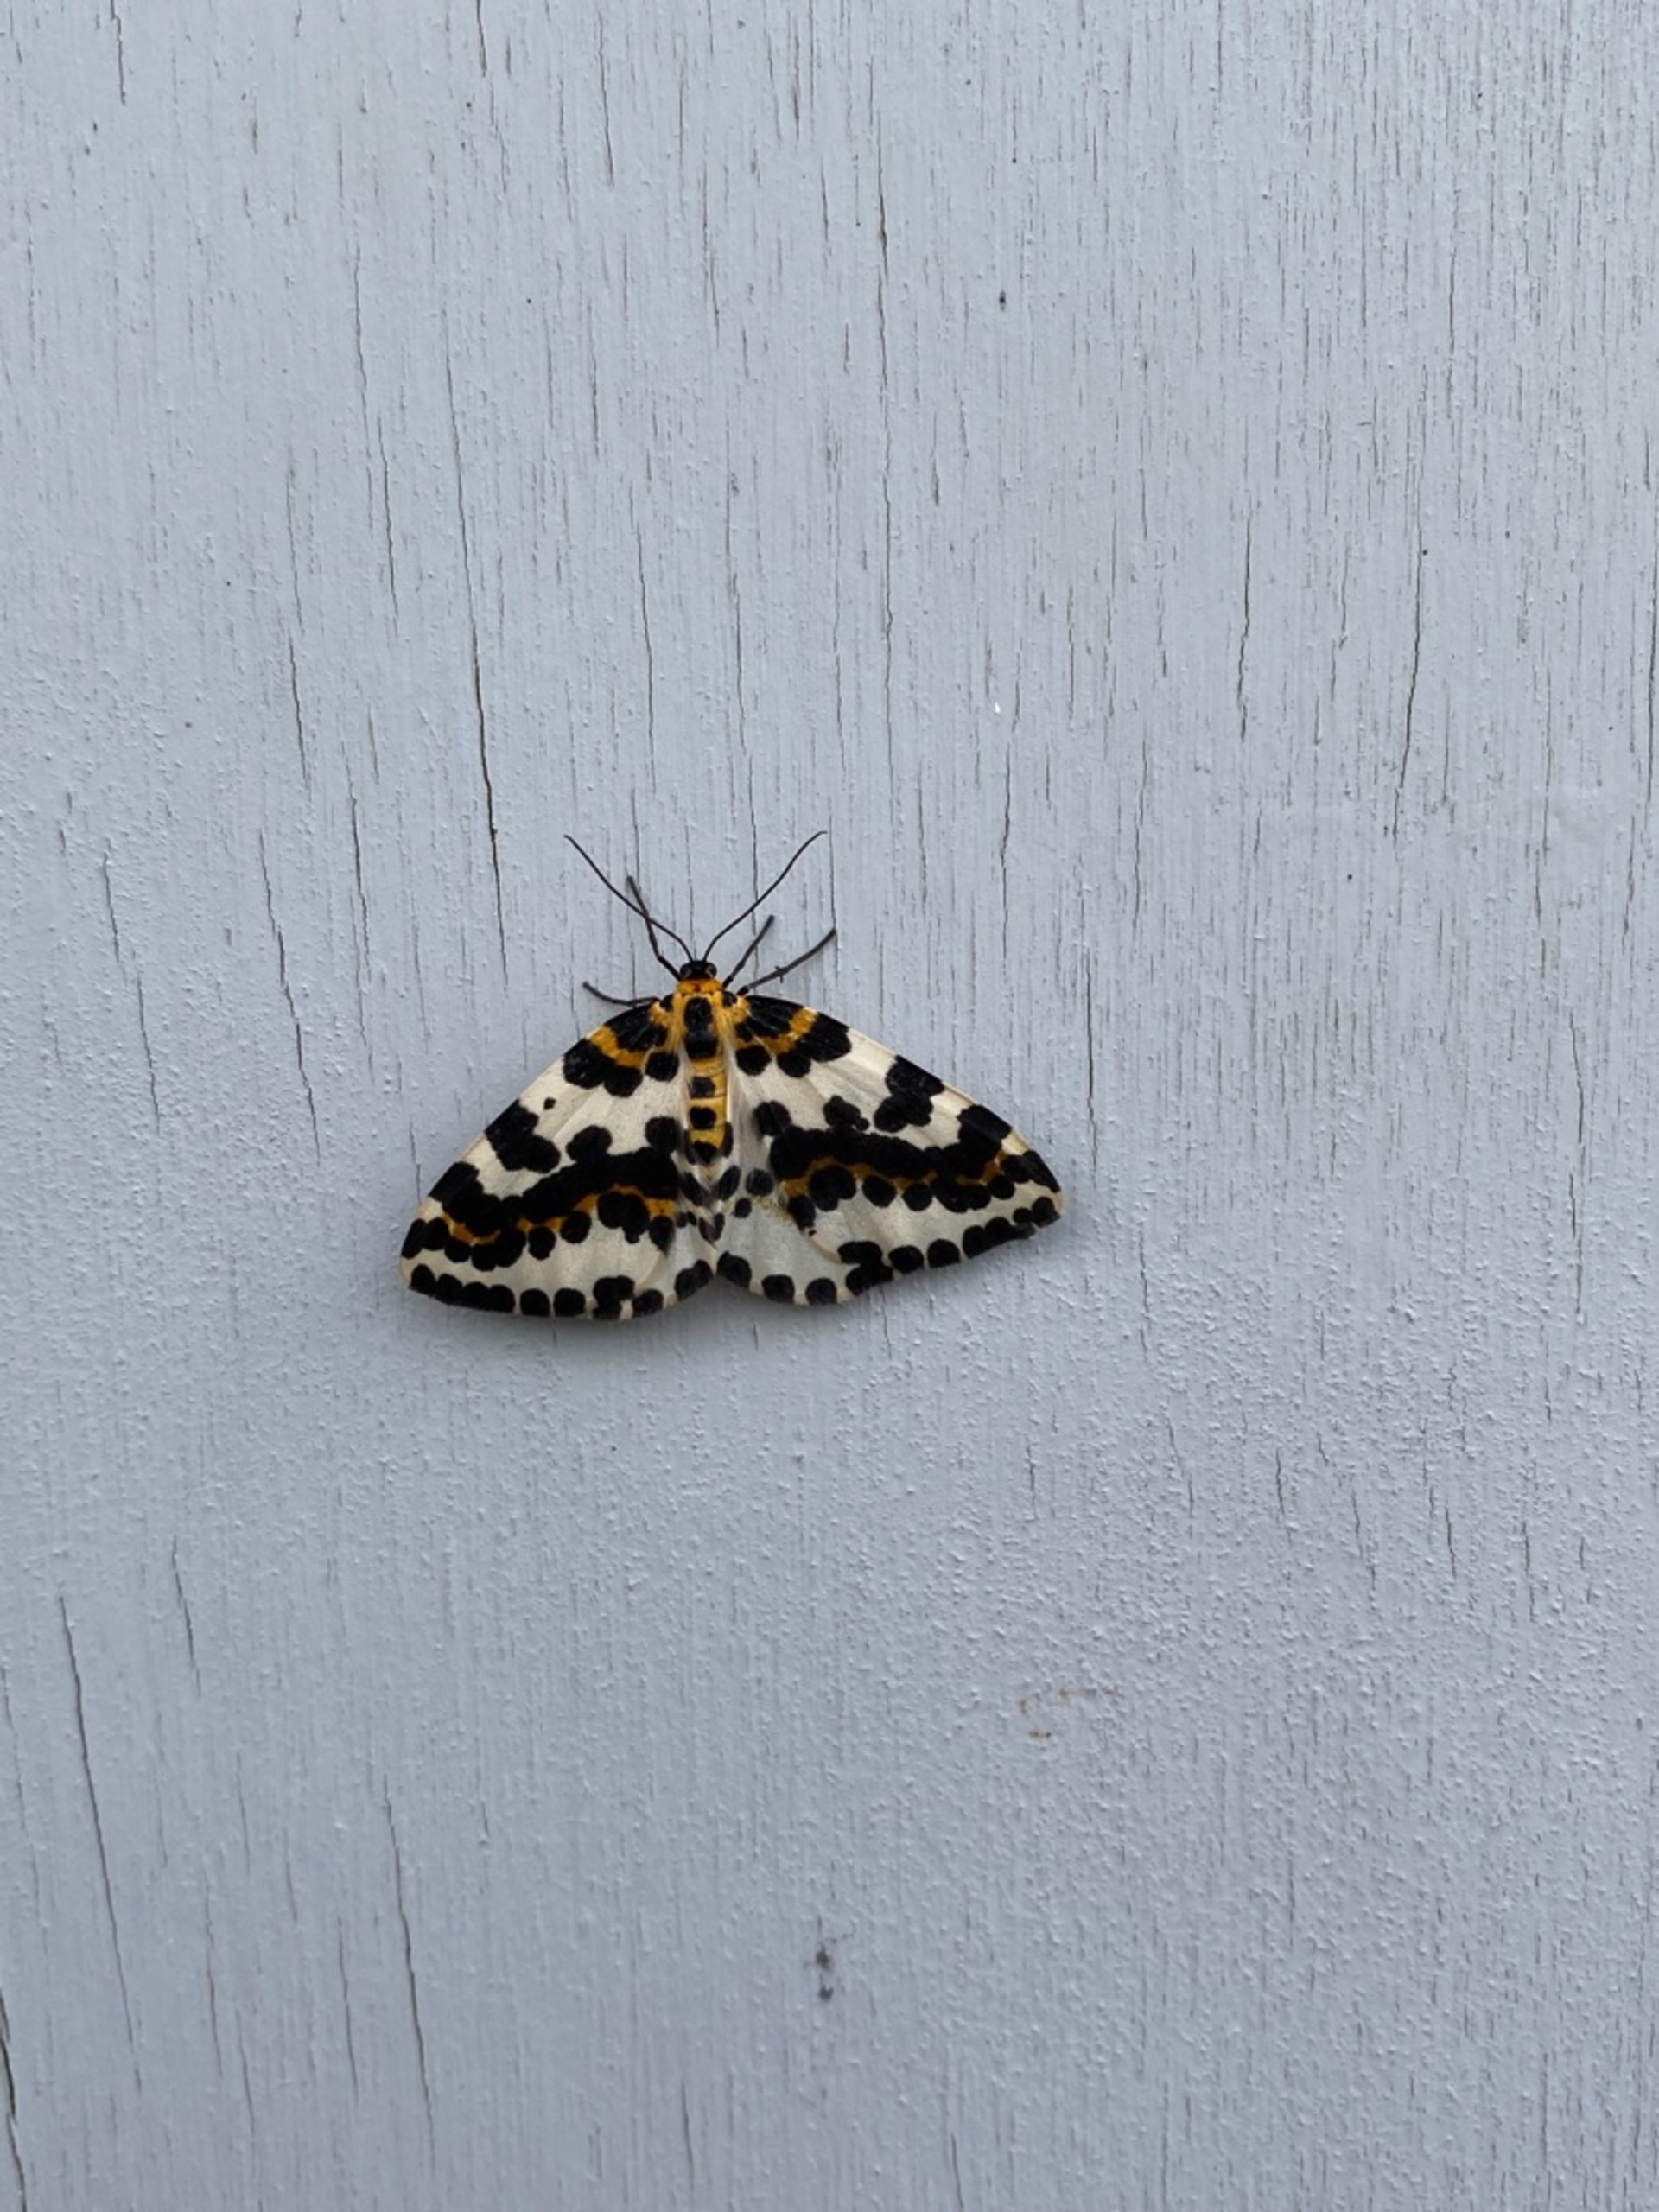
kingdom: Animalia
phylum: Arthropoda
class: Insecta
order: Lepidoptera
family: Geometridae
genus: Abraxas
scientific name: Abraxas grossulariata
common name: Harlekin
